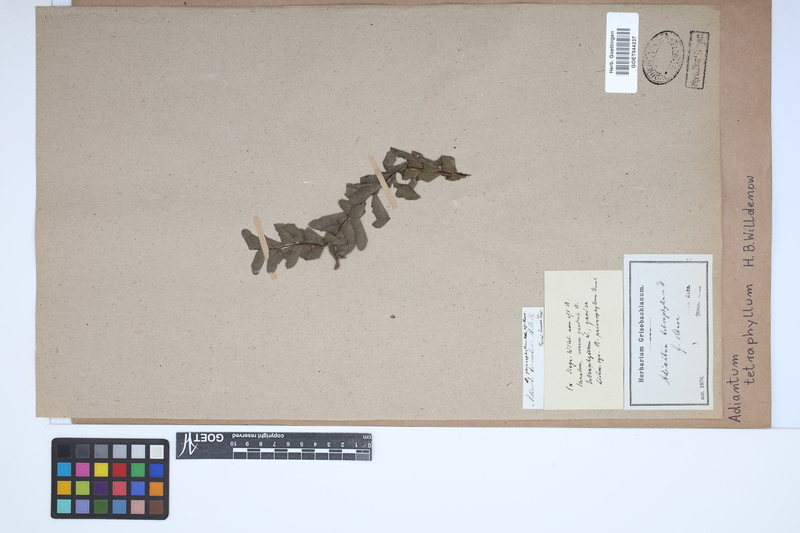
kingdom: Plantae
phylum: Tracheophyta
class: Polypodiopsida
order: Polypodiales
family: Pteridaceae
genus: Adiantum
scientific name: Adiantum tetraphyllum
